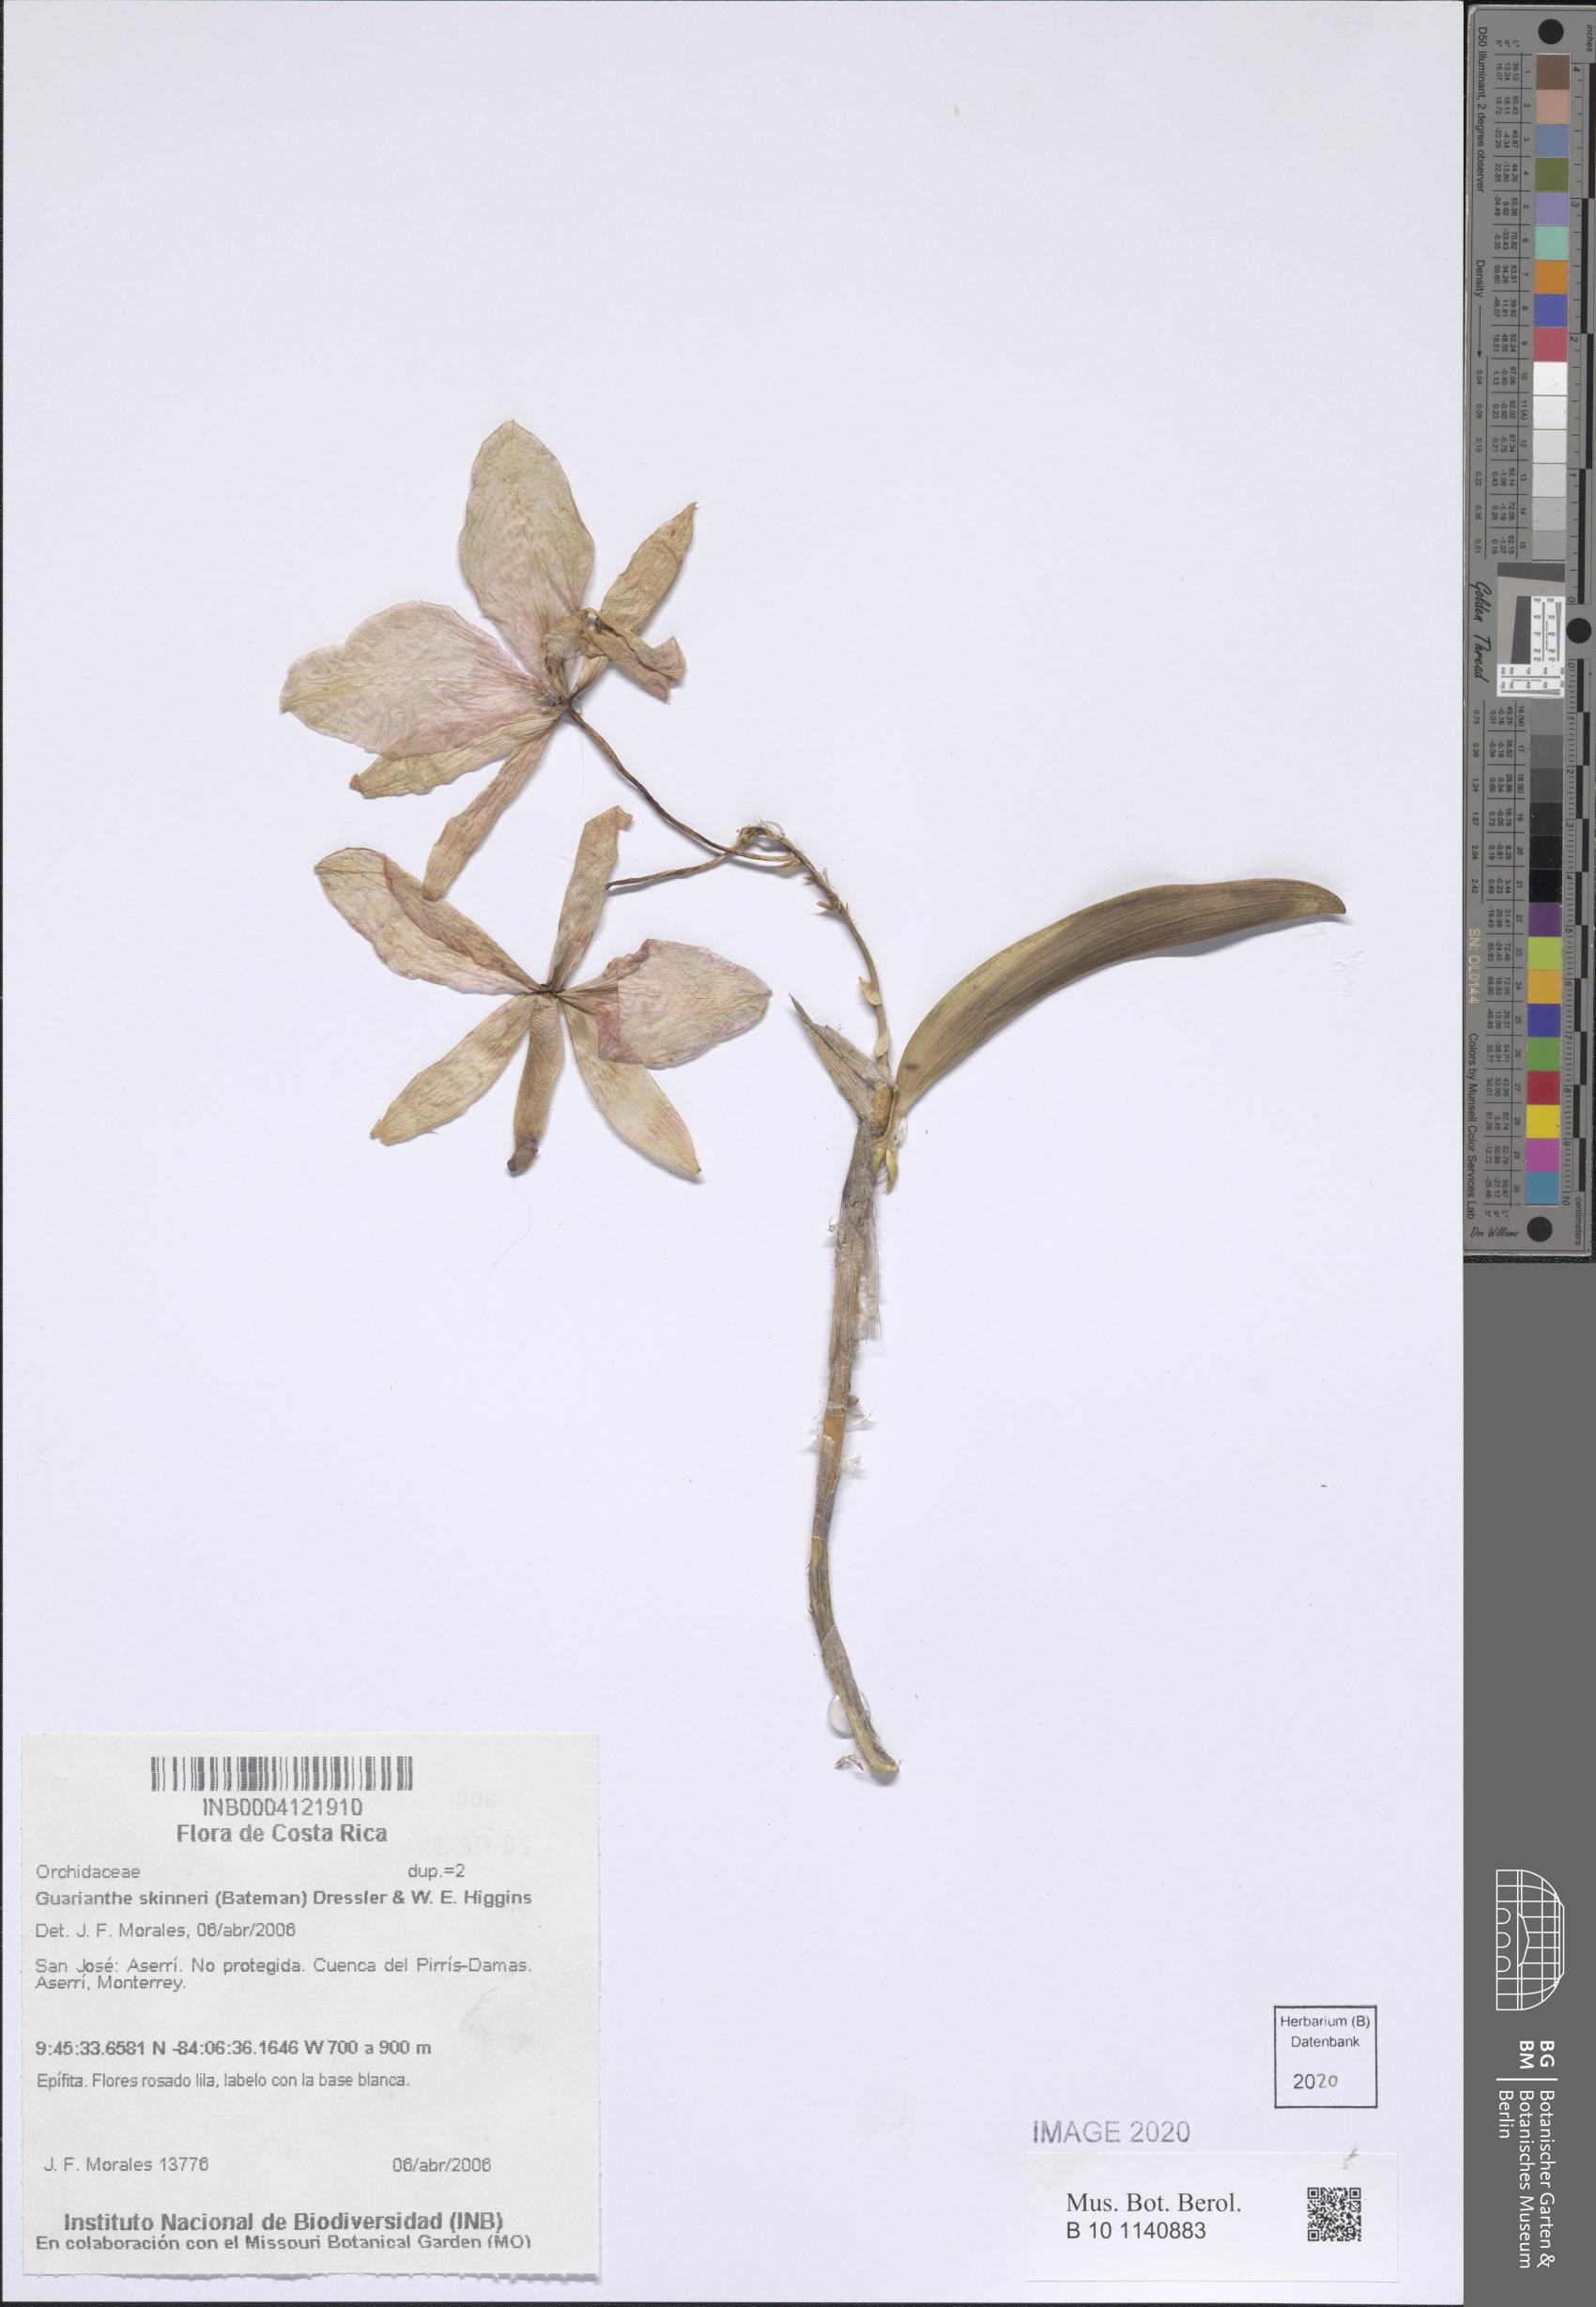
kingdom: Plantae
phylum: Tracheophyta
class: Liliopsida
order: Asparagales
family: Orchidaceae
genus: Guarianthe
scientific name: Guarianthe skinneri
